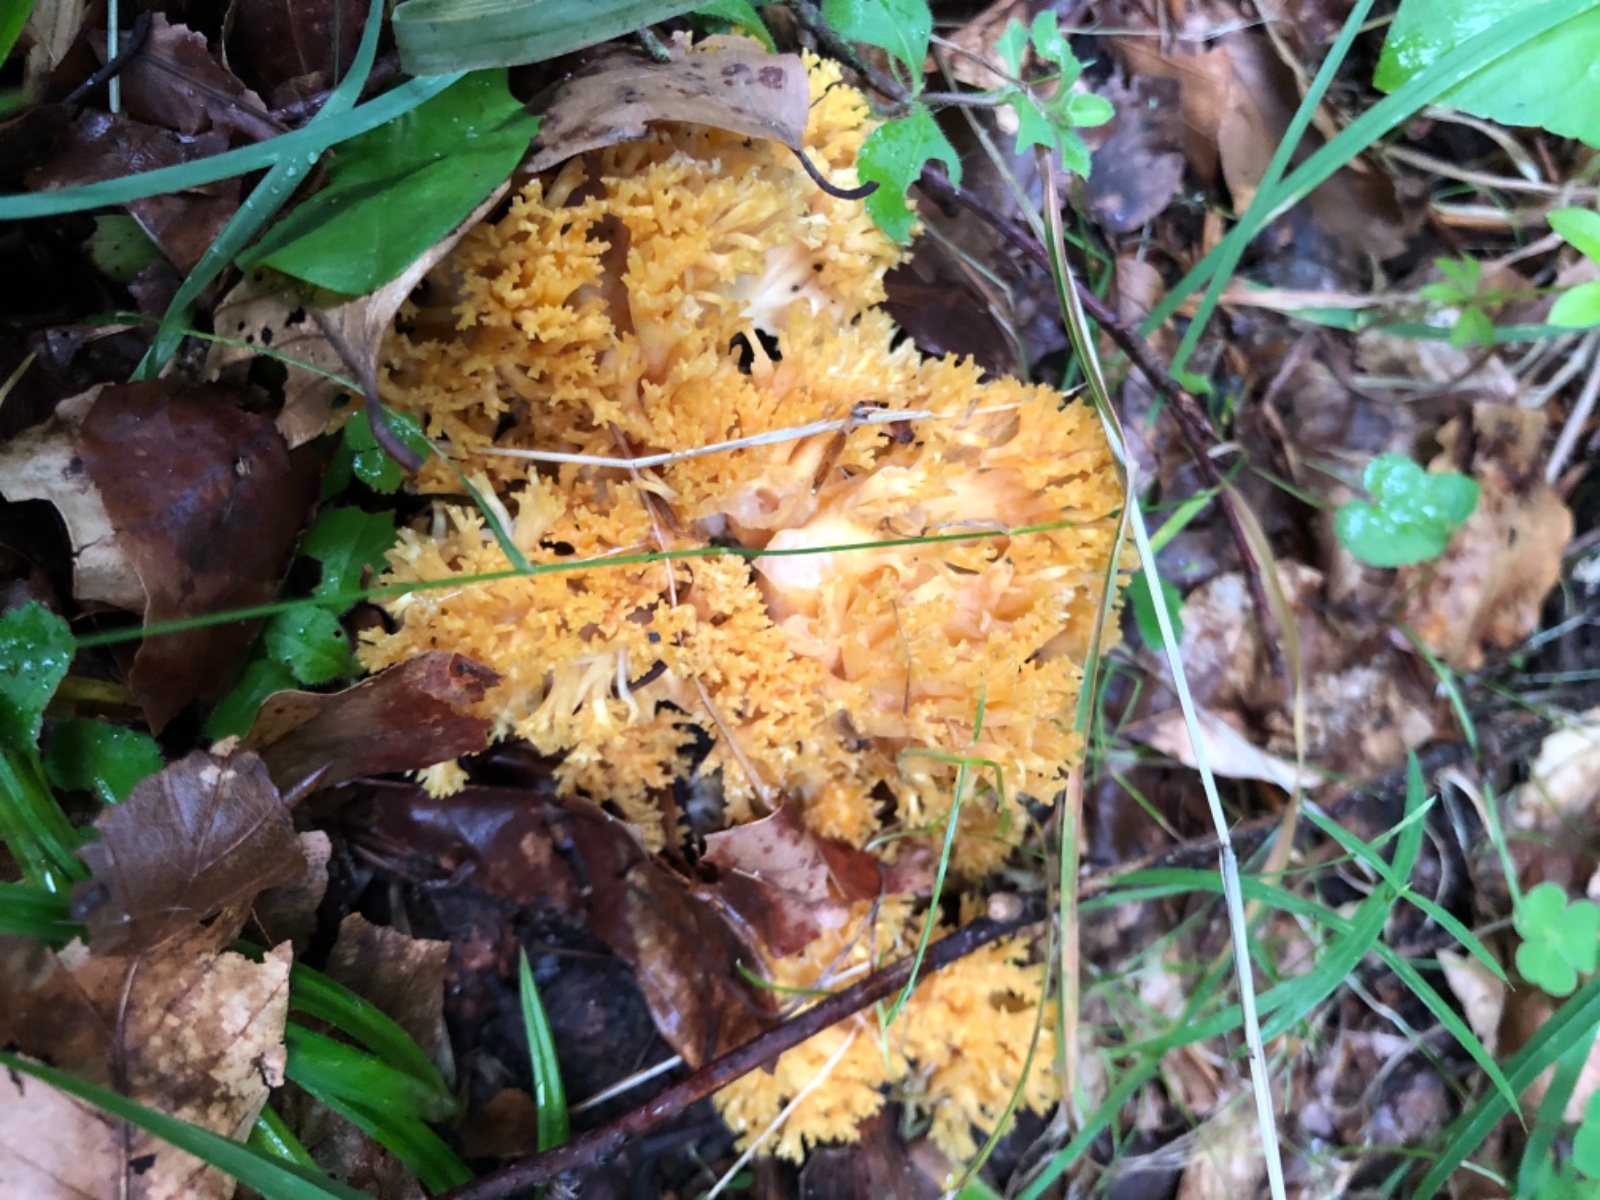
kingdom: Fungi
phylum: Basidiomycota
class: Agaricomycetes
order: Gomphales
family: Gomphaceae
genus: Ramaria
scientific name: Ramaria fagetorum
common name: abrikos-koralsvamp
